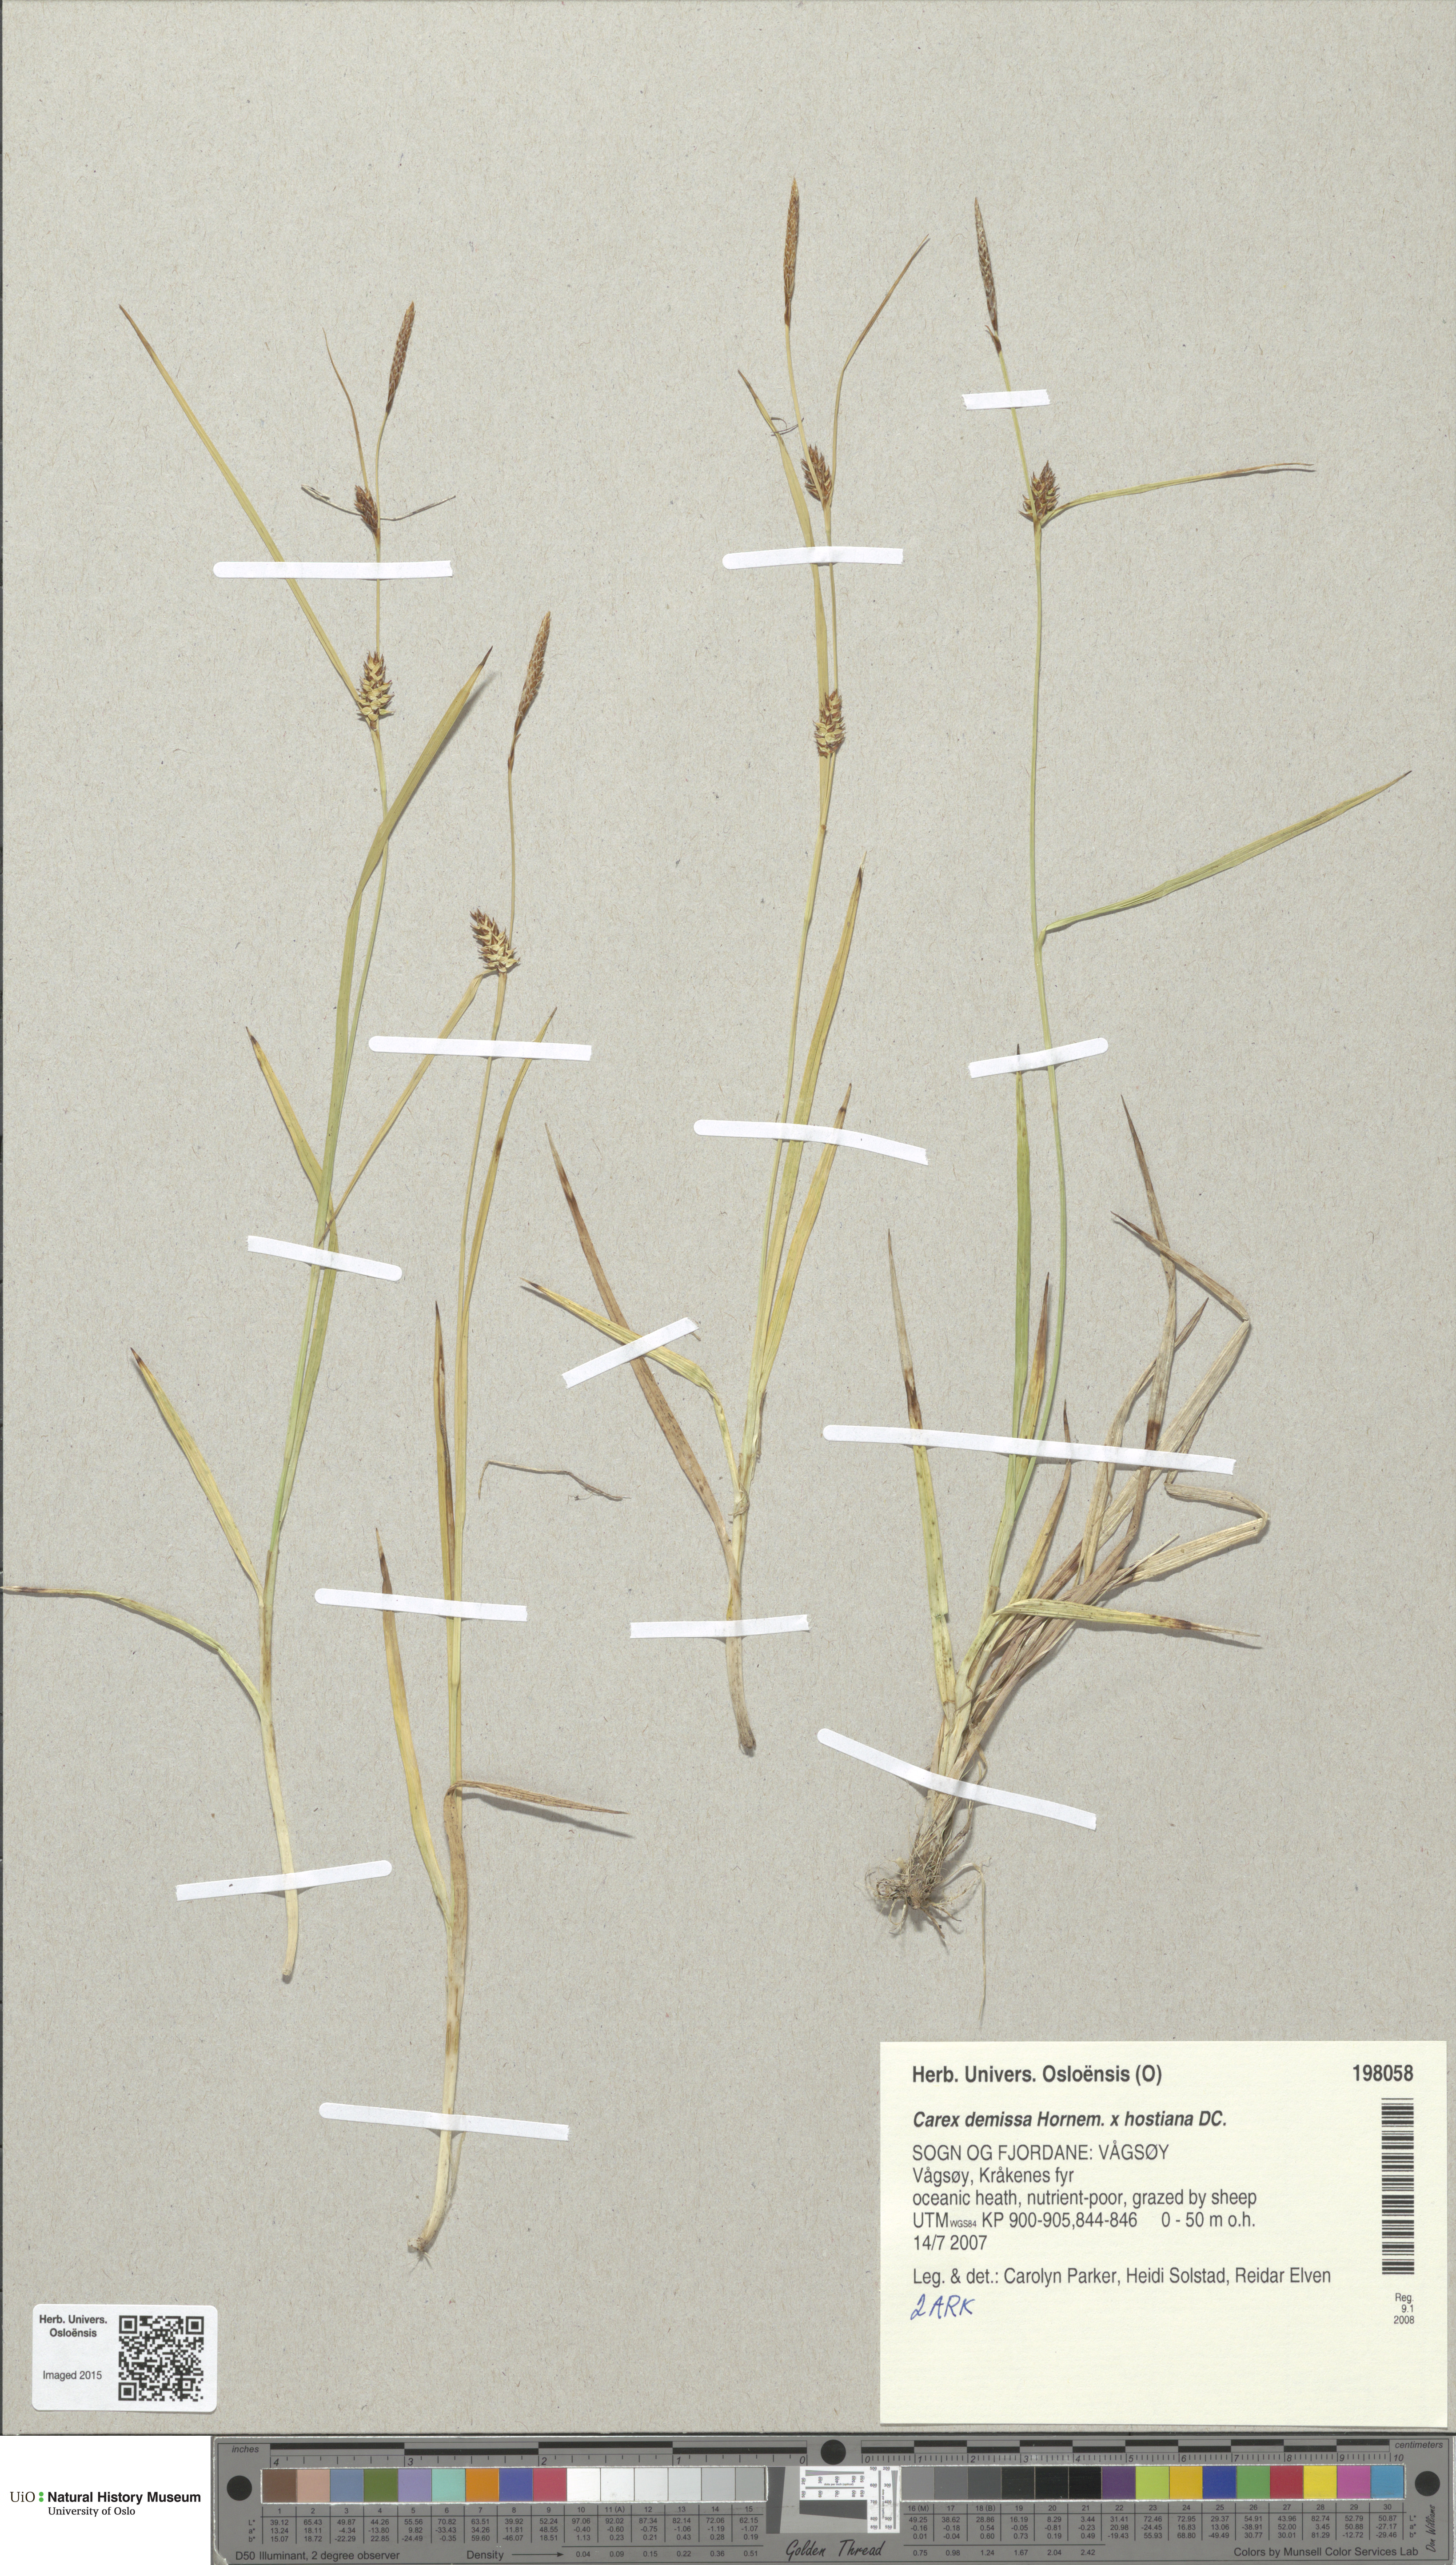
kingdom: Plantae
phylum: Tracheophyta
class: Liliopsida
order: Poales
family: Cyperaceae
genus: Carex
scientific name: Carex
